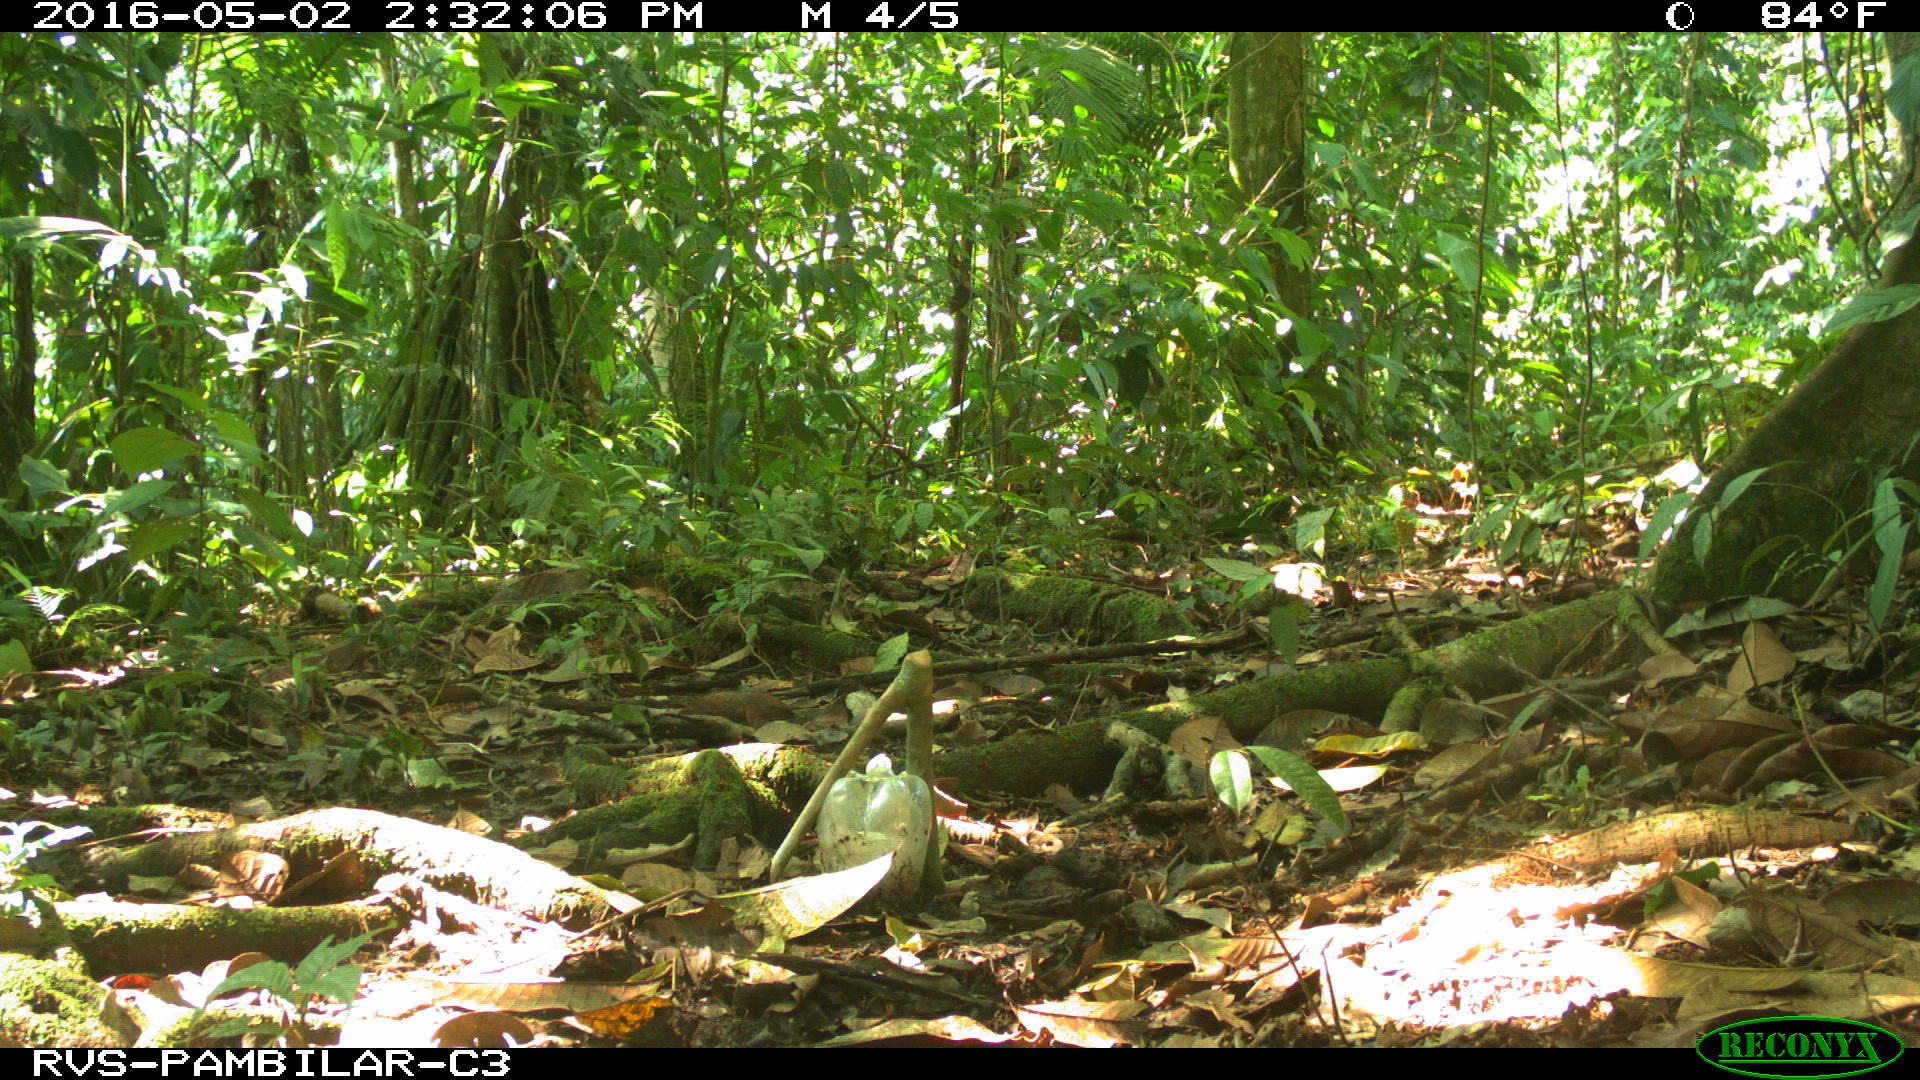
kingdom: Animalia
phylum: Chordata
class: Mammalia
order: Artiodactyla
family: Tayassuidae
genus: Tayassu
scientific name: Tayassu pecari
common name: White-lipped peccary
